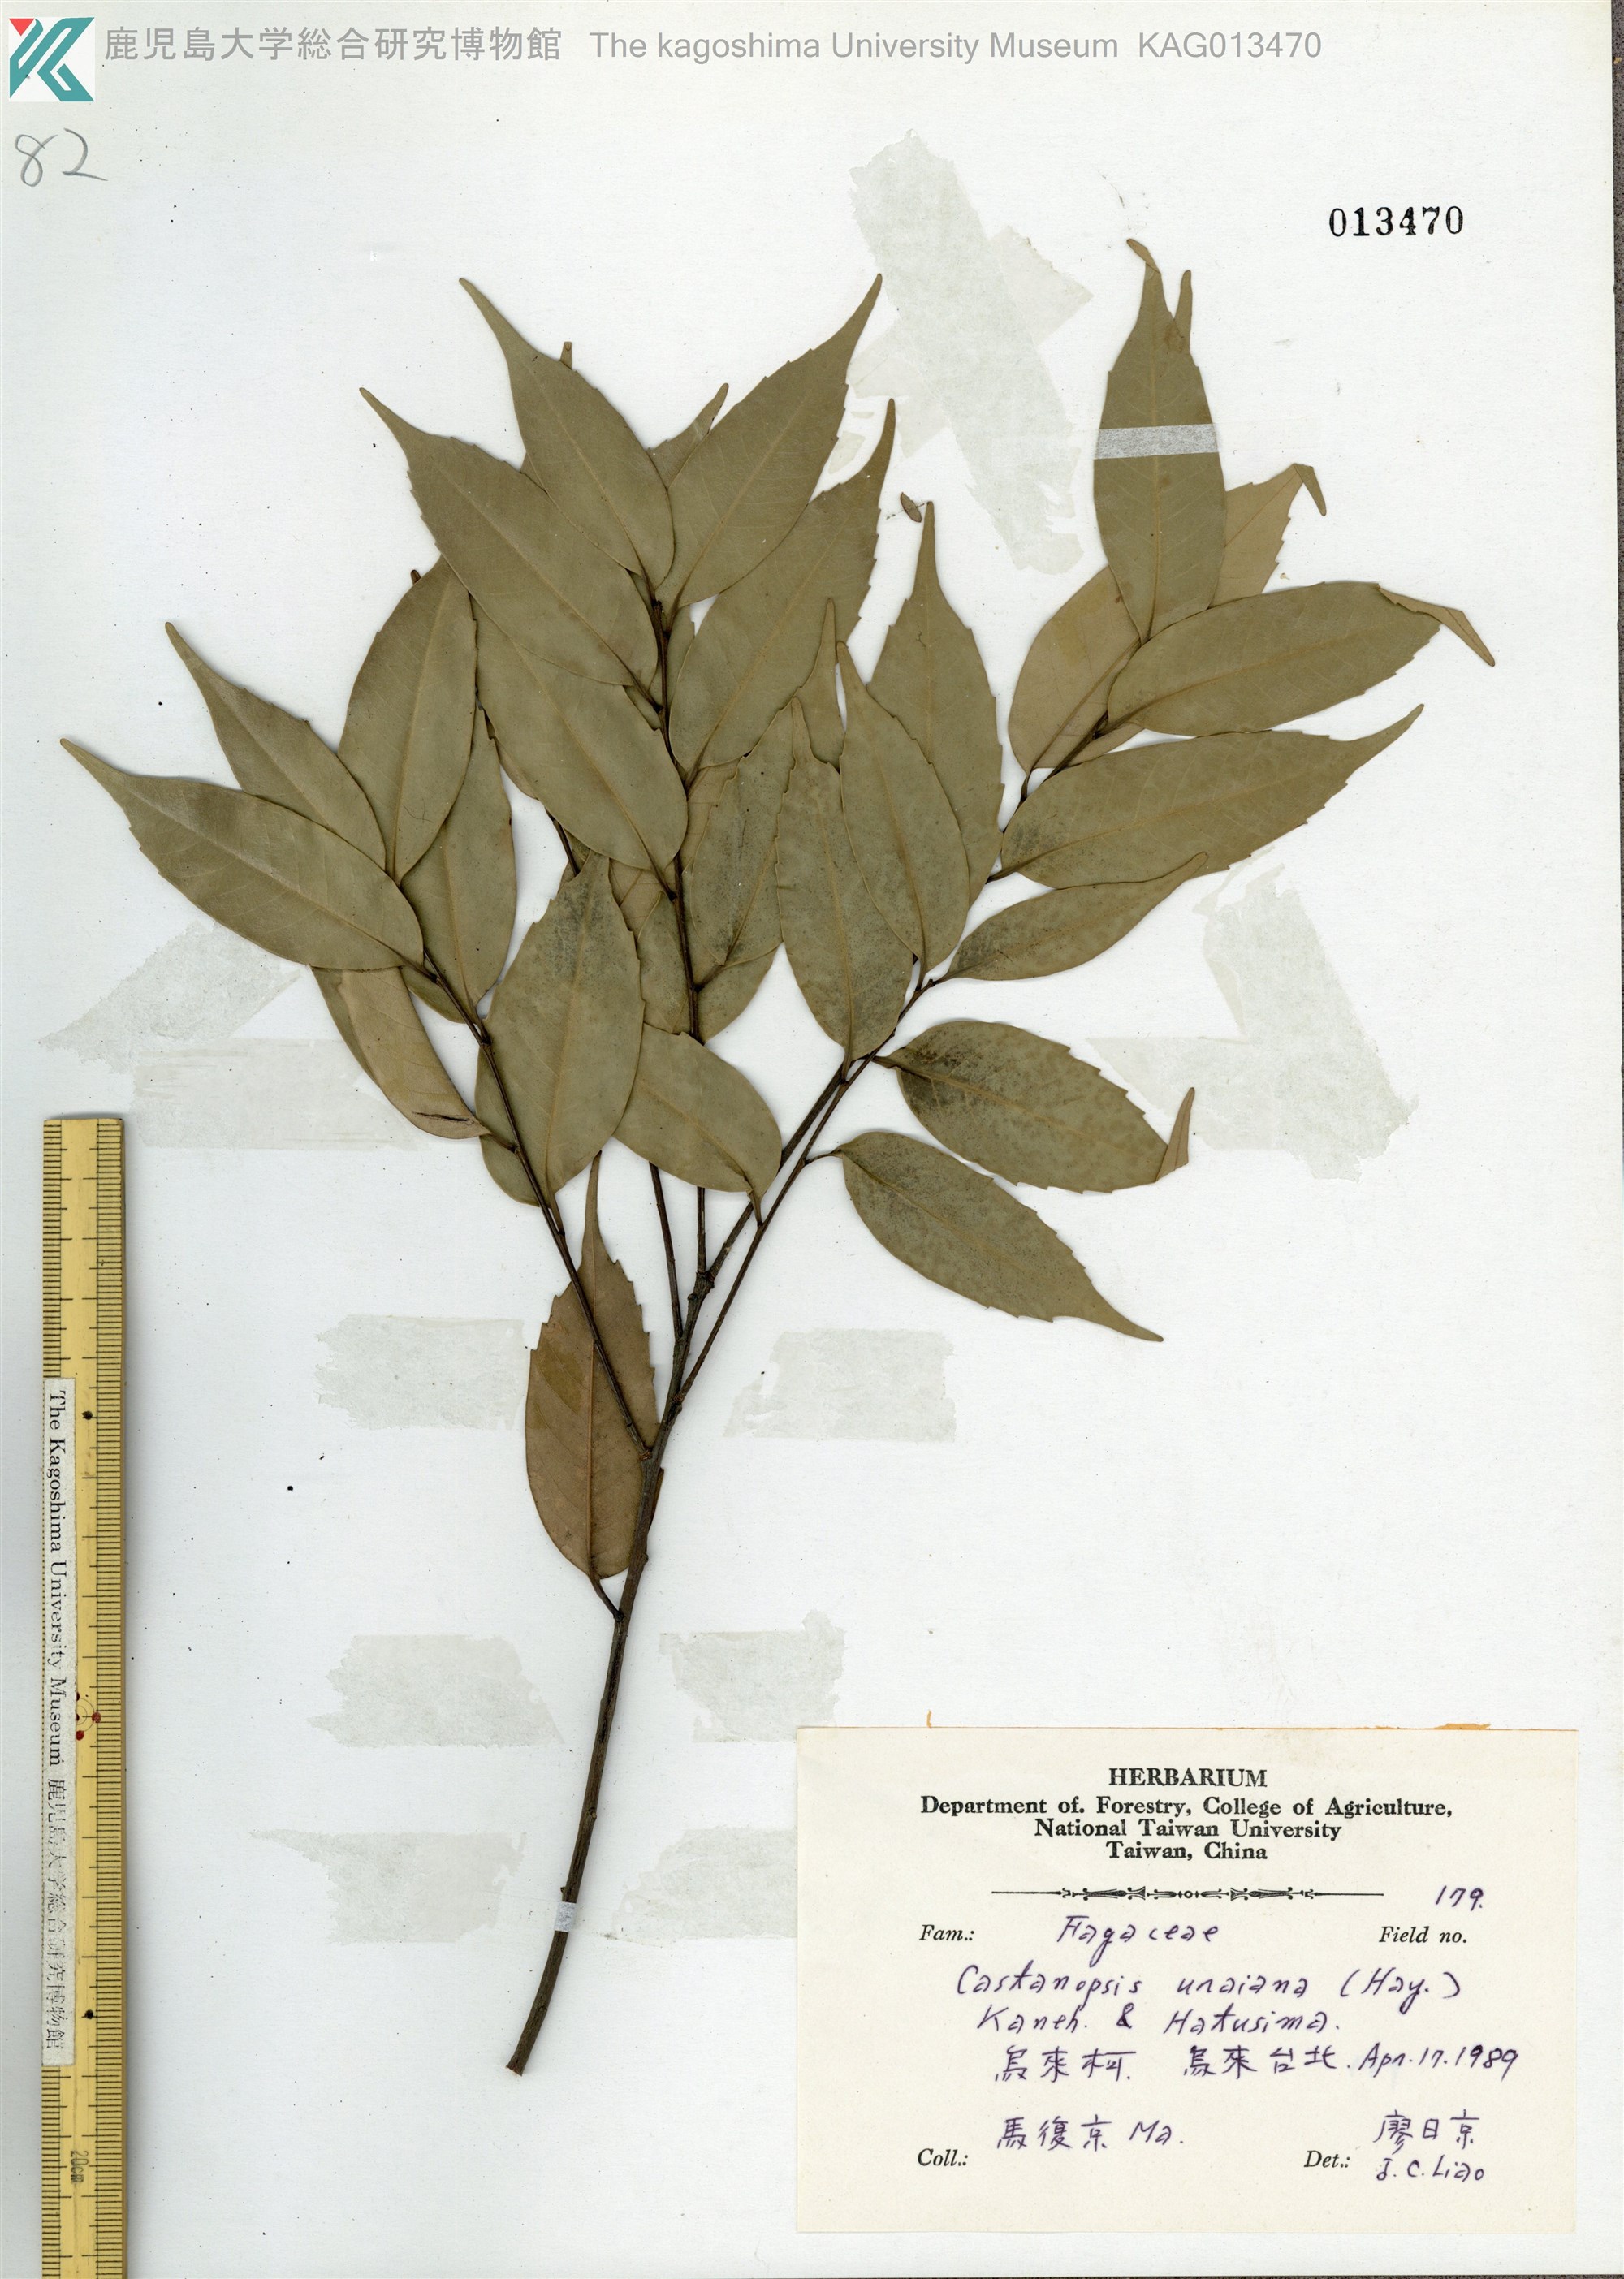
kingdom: Plantae
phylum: Tracheophyta
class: Magnoliopsida
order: Fagales
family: Fagaceae
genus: Lithocarpus
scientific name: Lithocarpus uraianus
